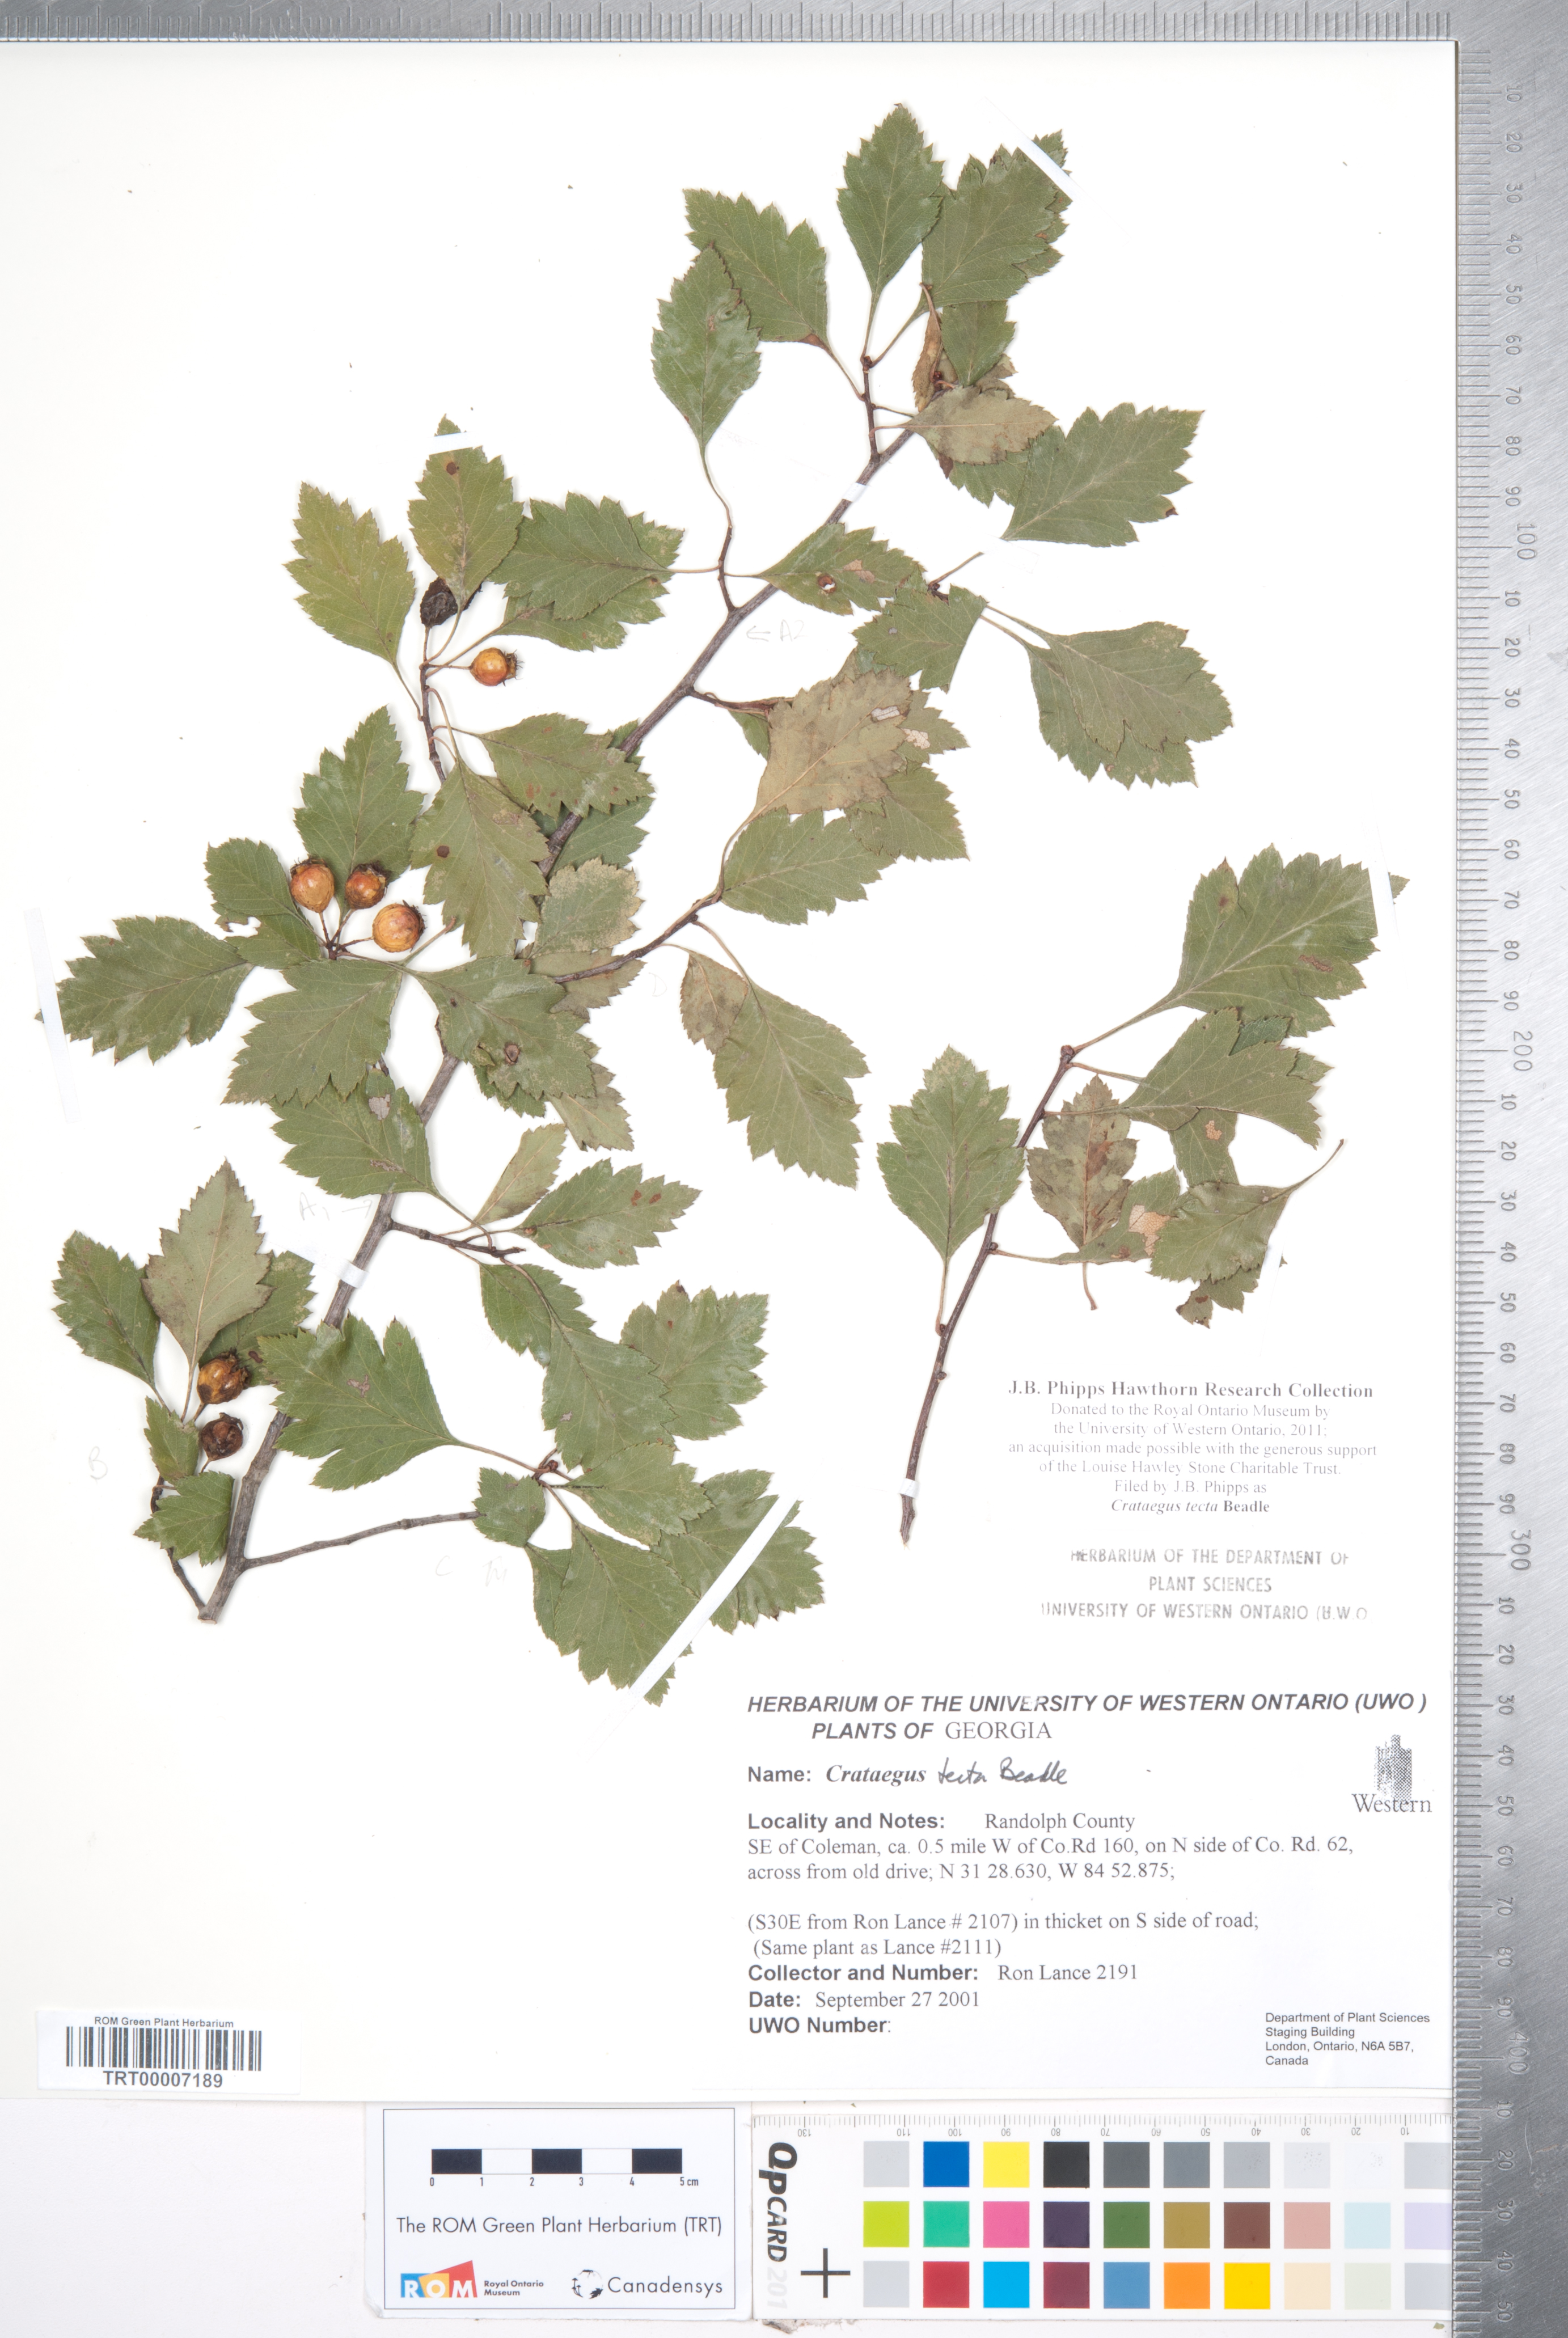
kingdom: Plantae
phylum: Tracheophyta
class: Magnoliopsida
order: Rosales
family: Rosaceae
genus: Crataegus
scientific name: Crataegus pulcherrima
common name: Beautiful hawthorn
